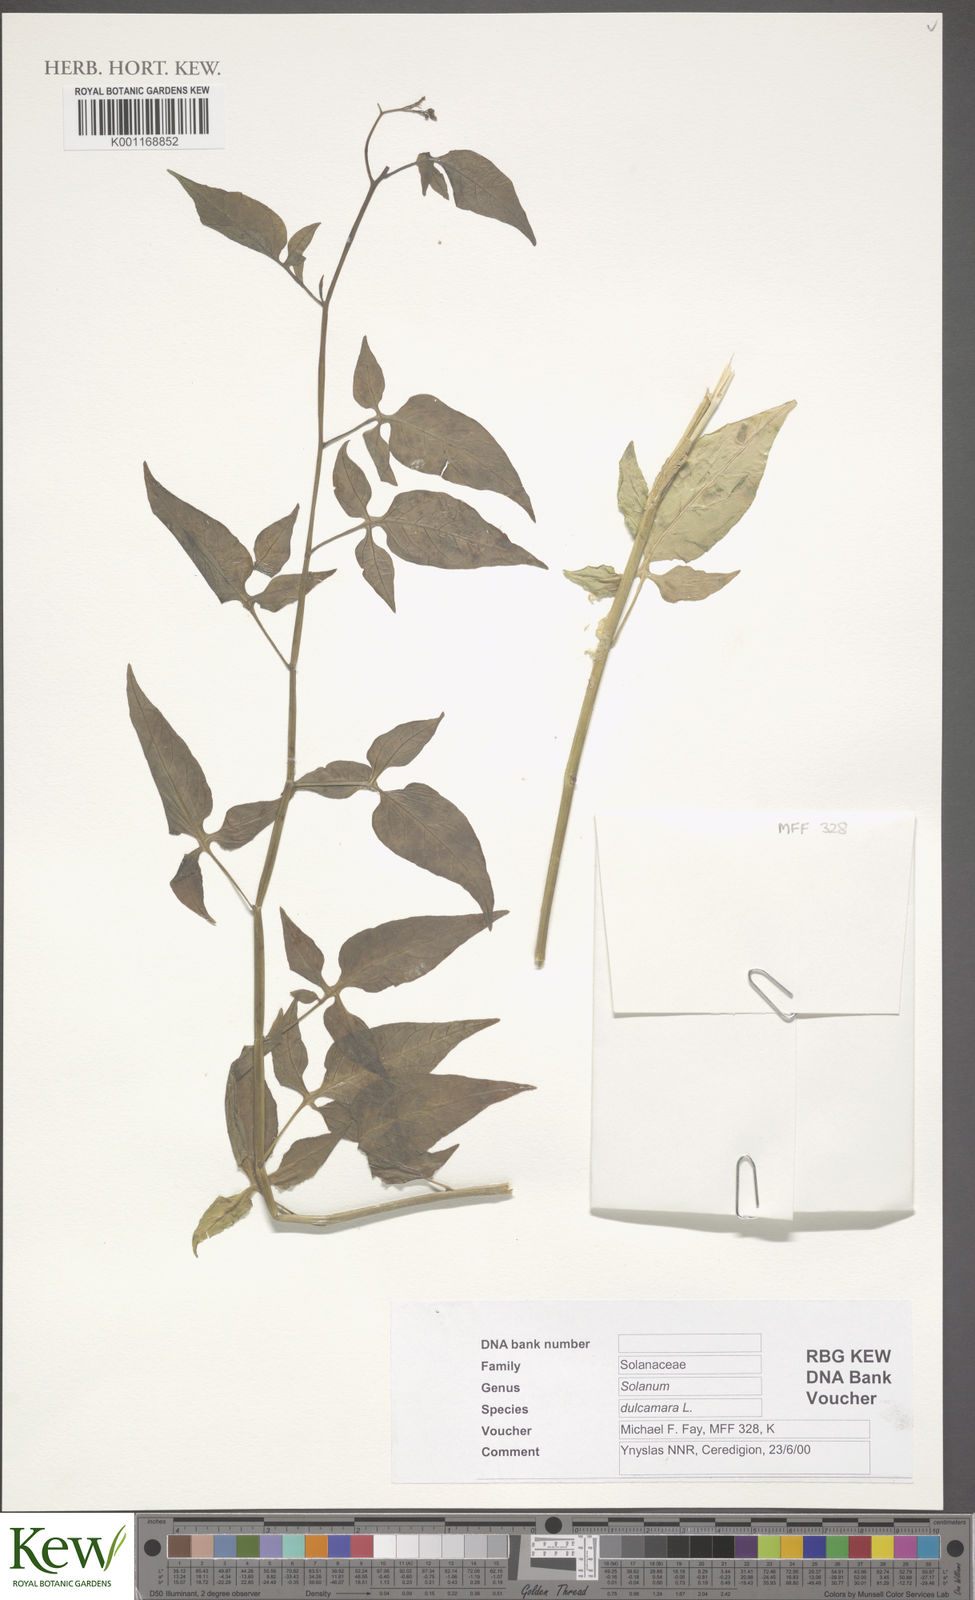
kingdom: Plantae
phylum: Tracheophyta
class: Magnoliopsida
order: Solanales
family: Solanaceae
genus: Solanum
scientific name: Solanum dulcamara
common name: Climbing nightshade
